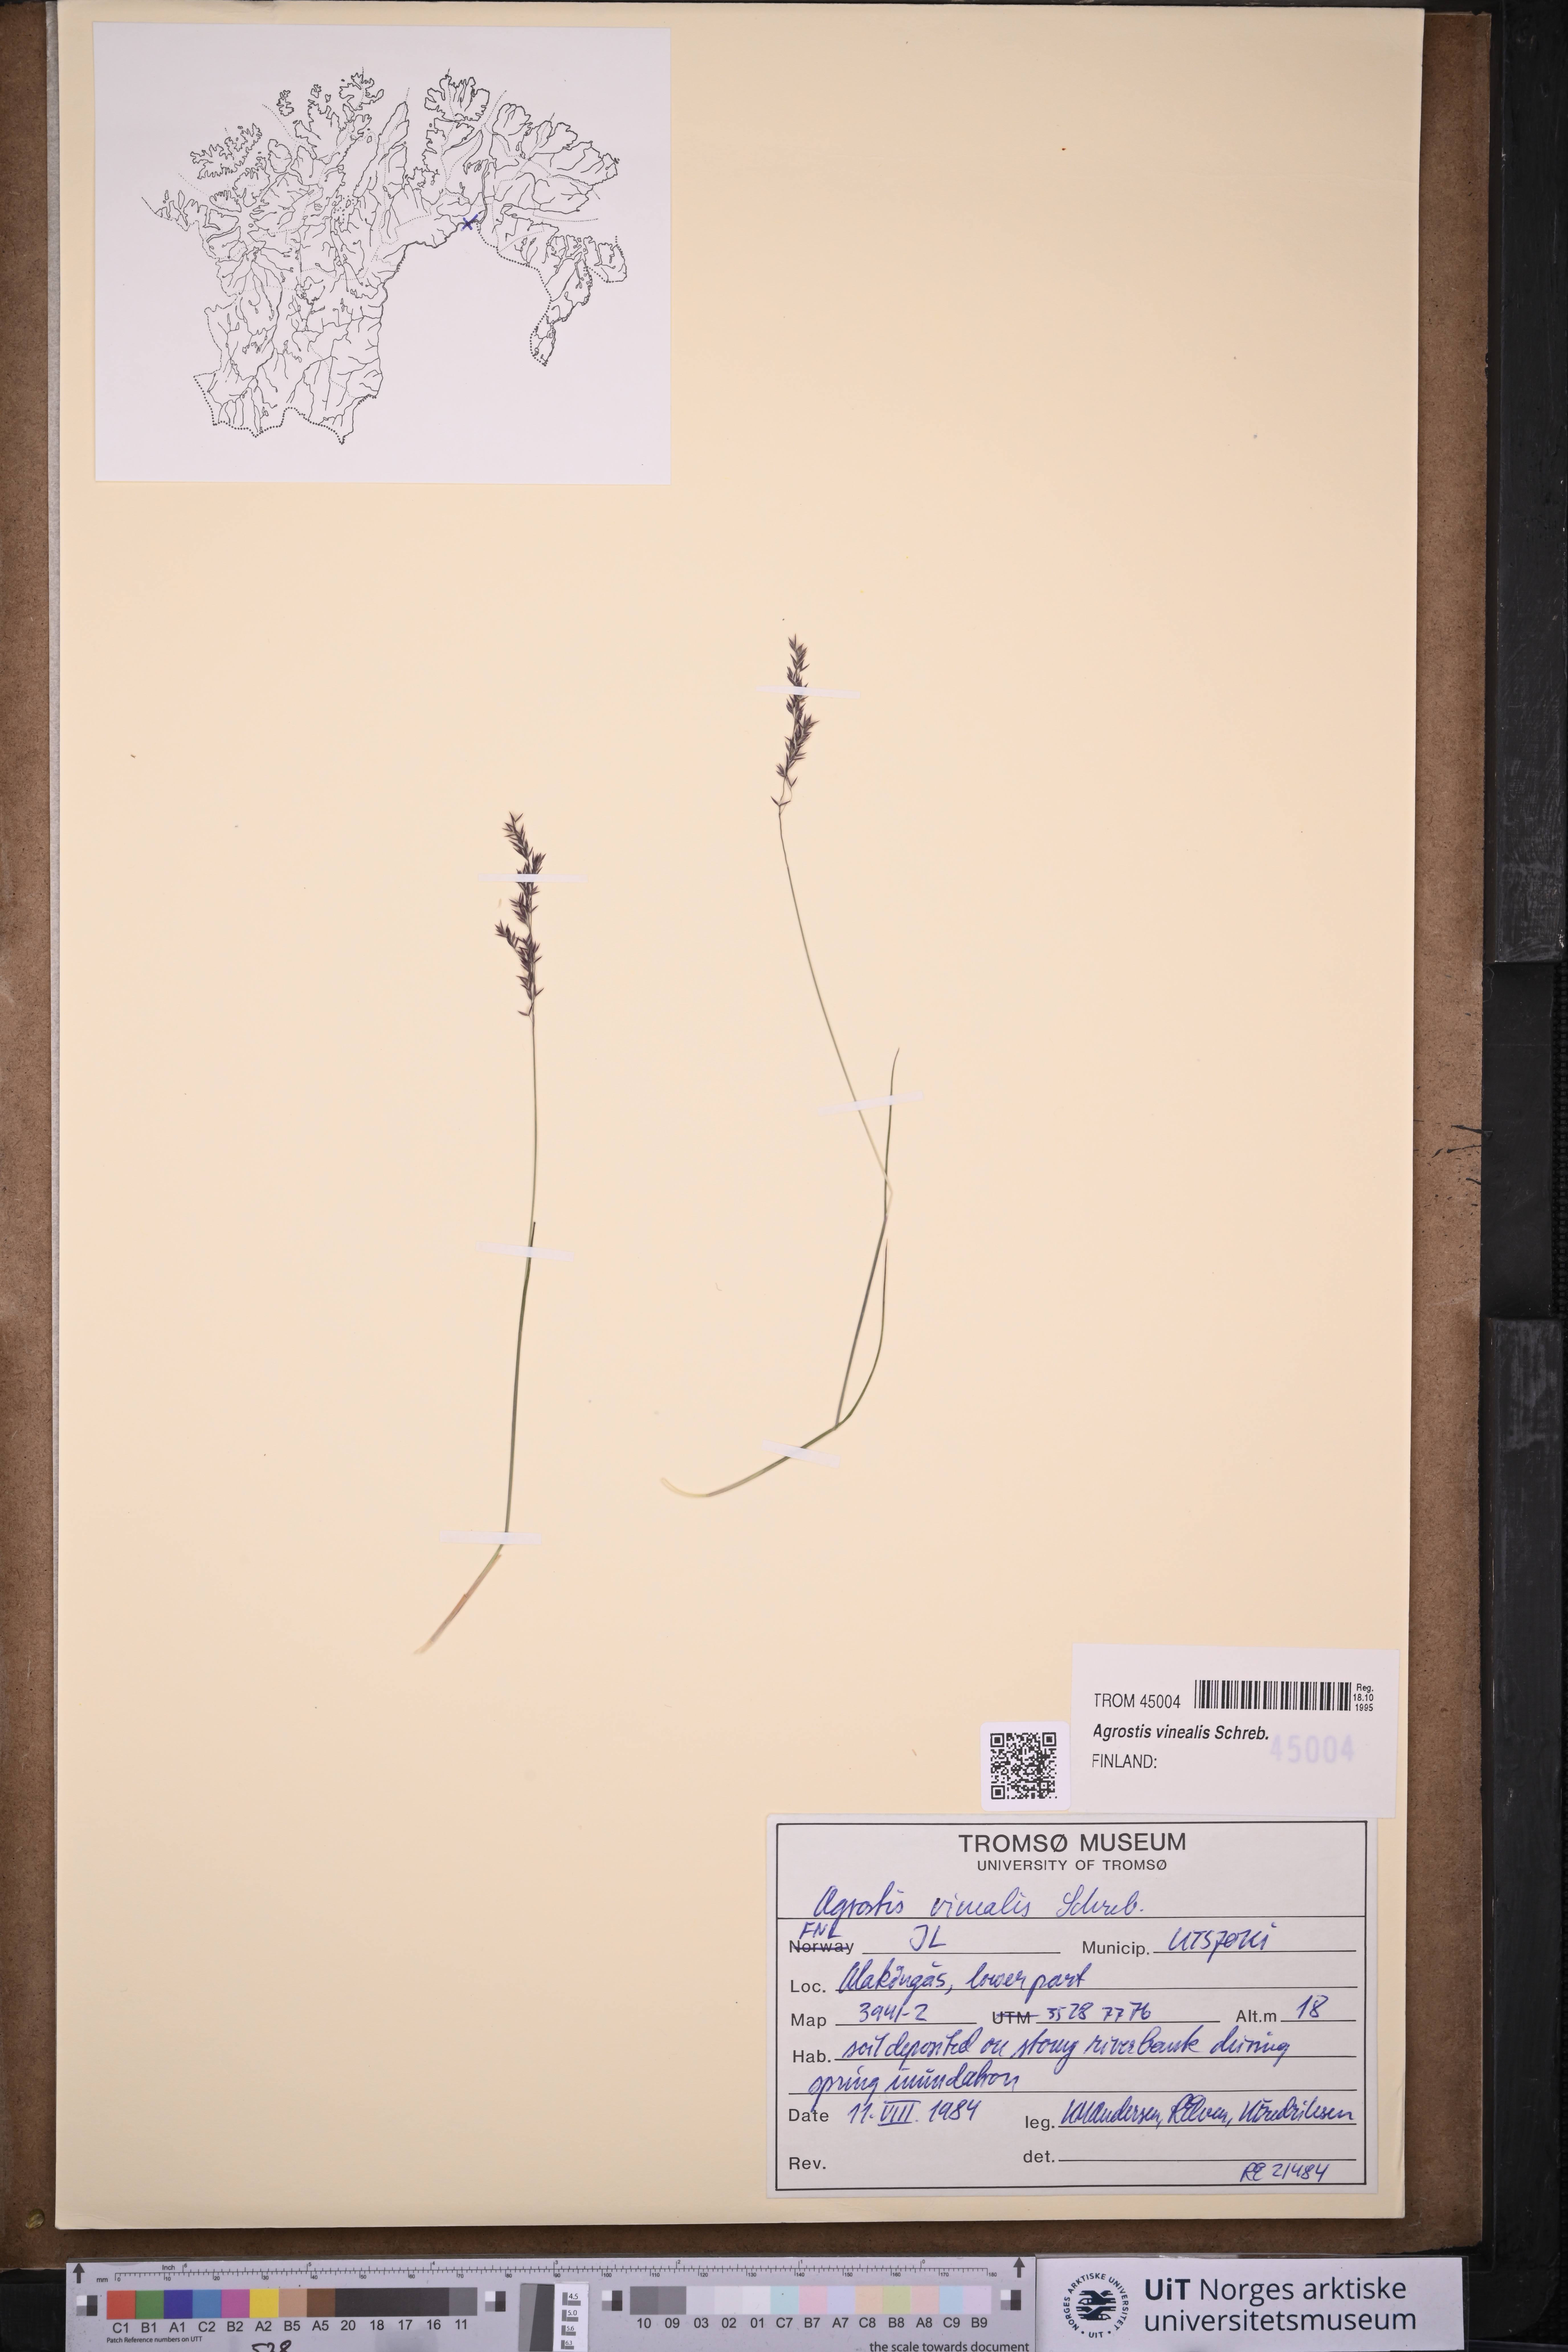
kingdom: Plantae
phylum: Tracheophyta
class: Liliopsida
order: Poales
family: Poaceae
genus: Agrostis
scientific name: Agrostis vinealis
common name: Brown bent
